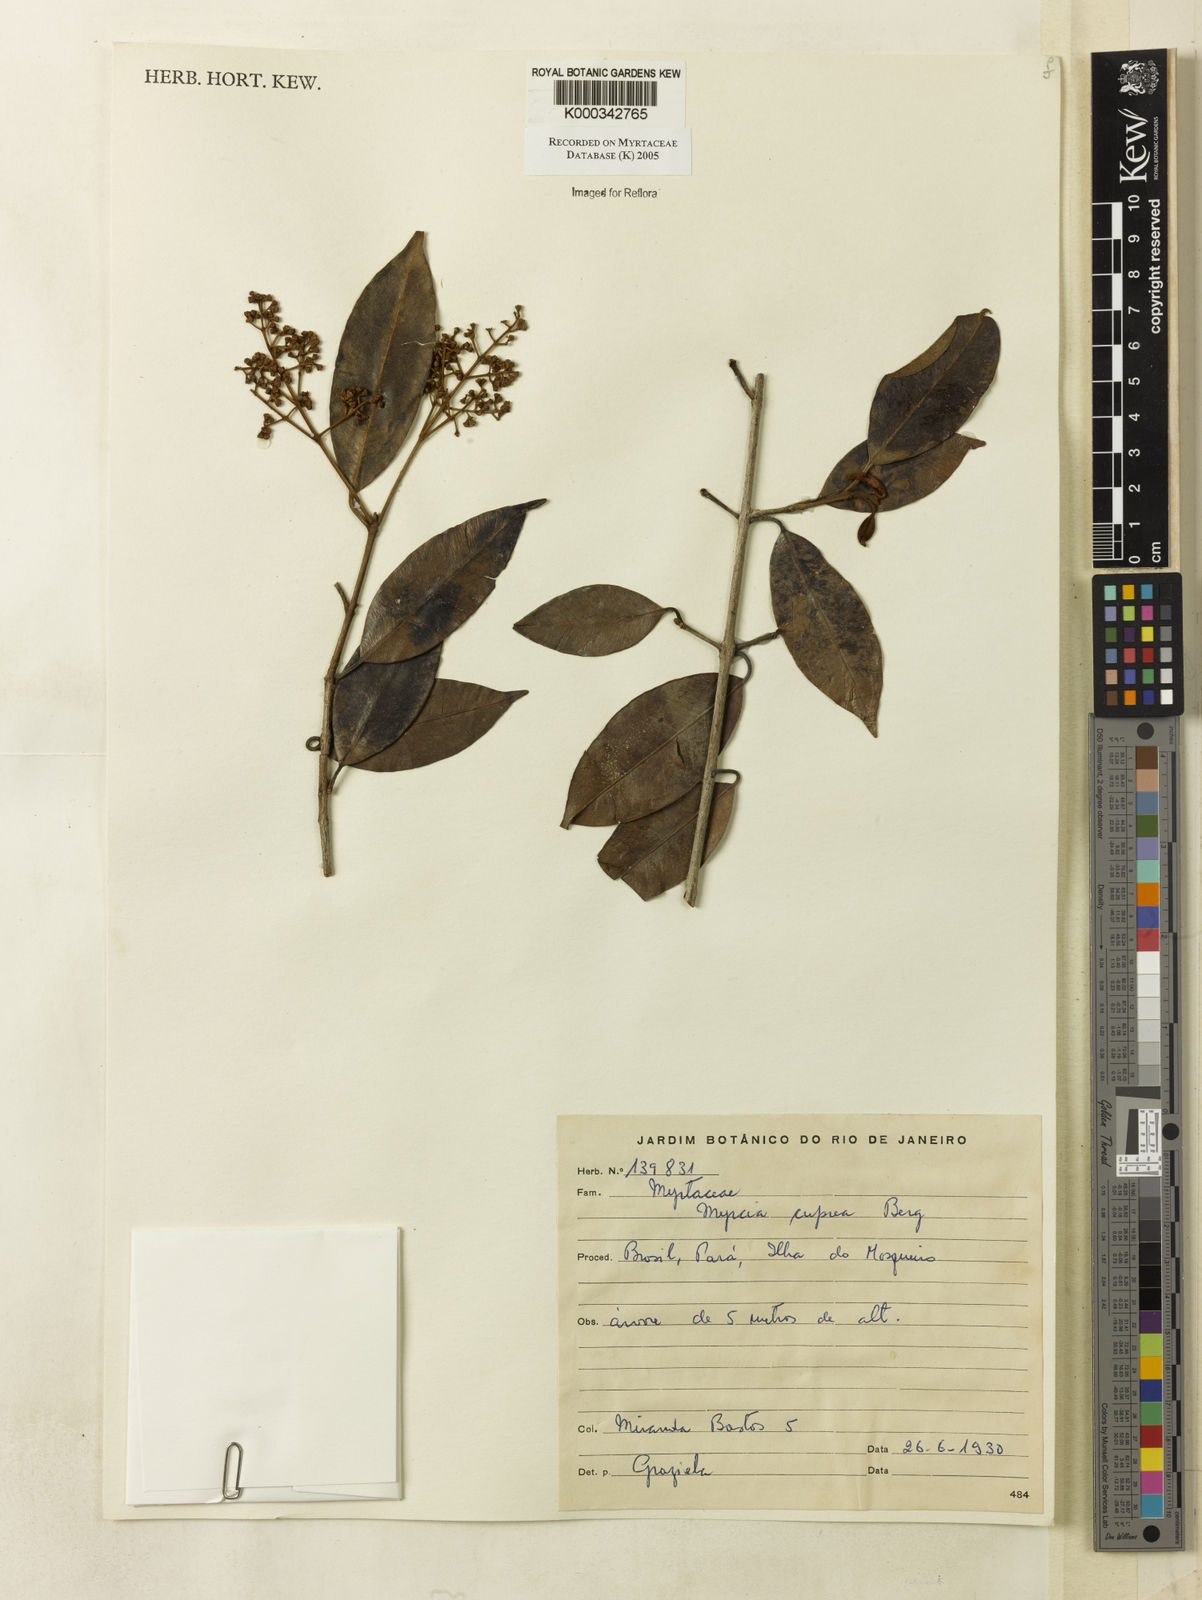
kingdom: Plantae
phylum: Tracheophyta
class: Magnoliopsida
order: Myrtales
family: Myrtaceae
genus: Myrcia
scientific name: Myrcia cuprea
